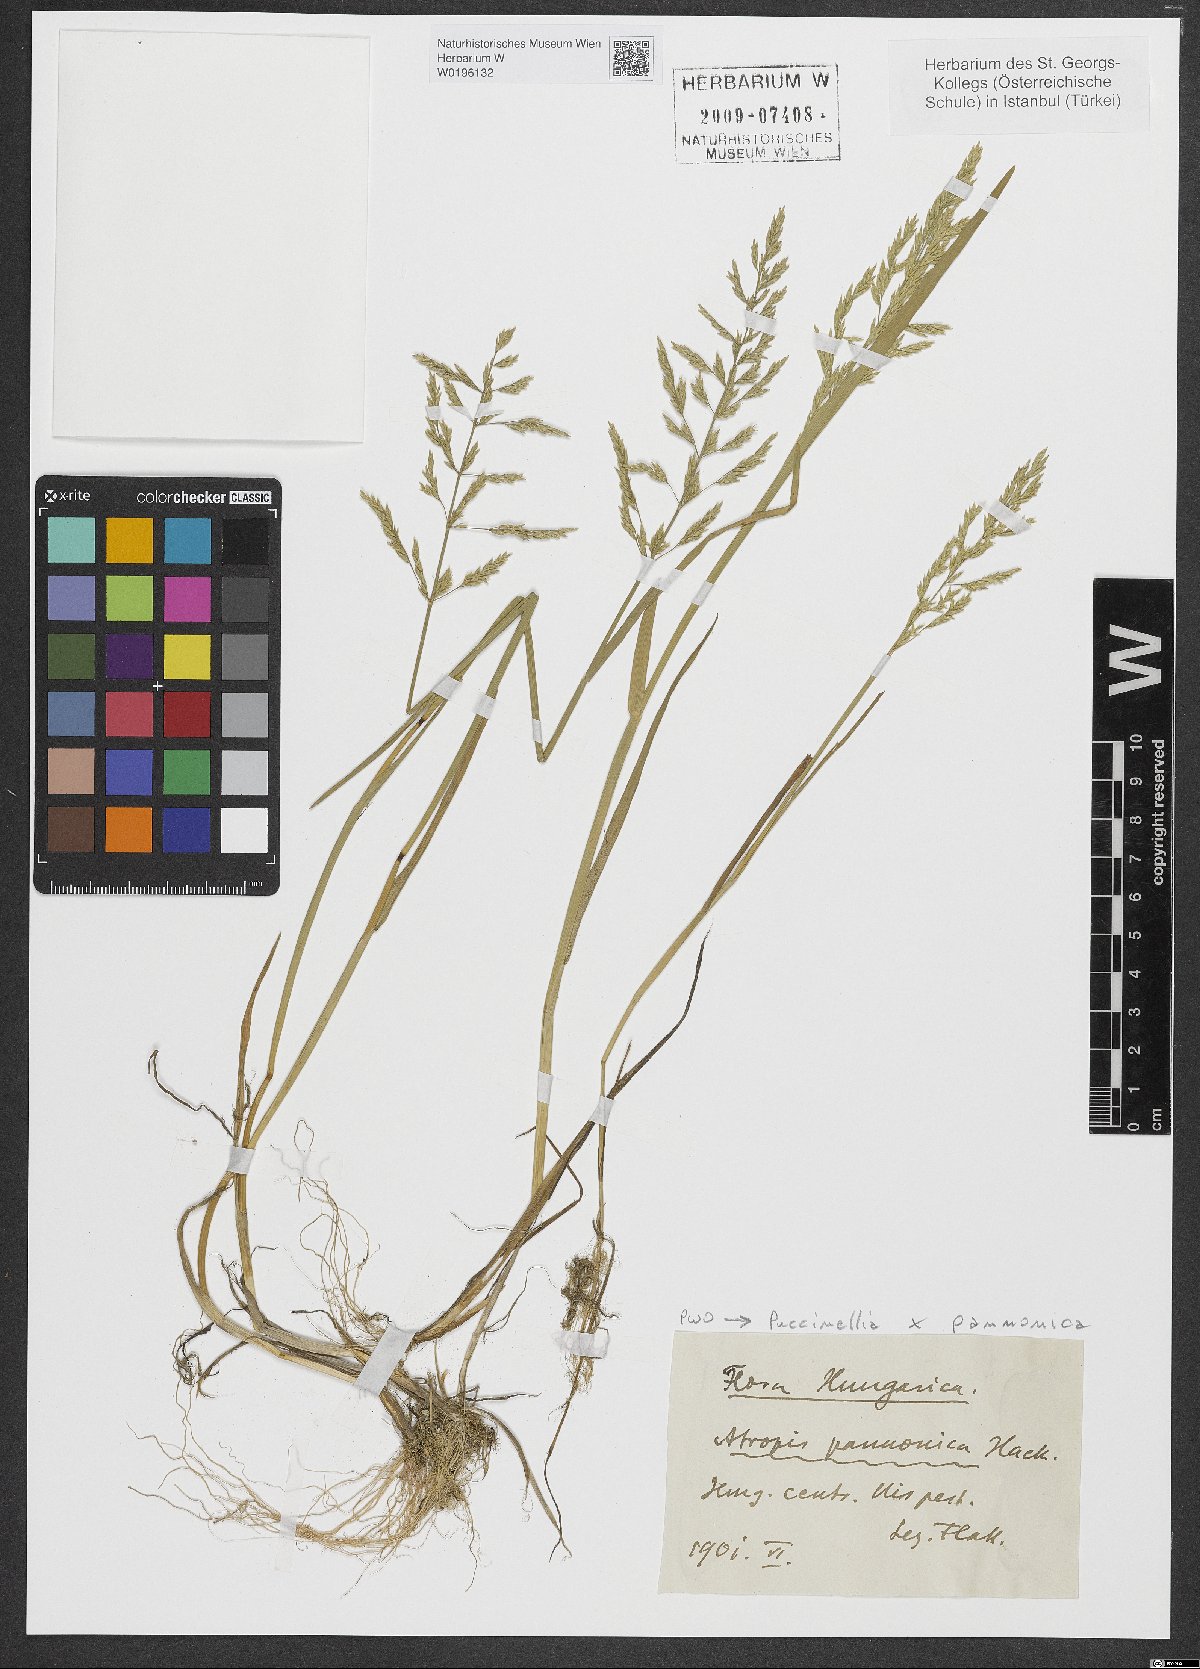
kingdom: Plantae
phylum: Tracheophyta
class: Liliopsida
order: Poales
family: Poaceae
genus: Puccinellia
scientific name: Puccinellia pannonica
